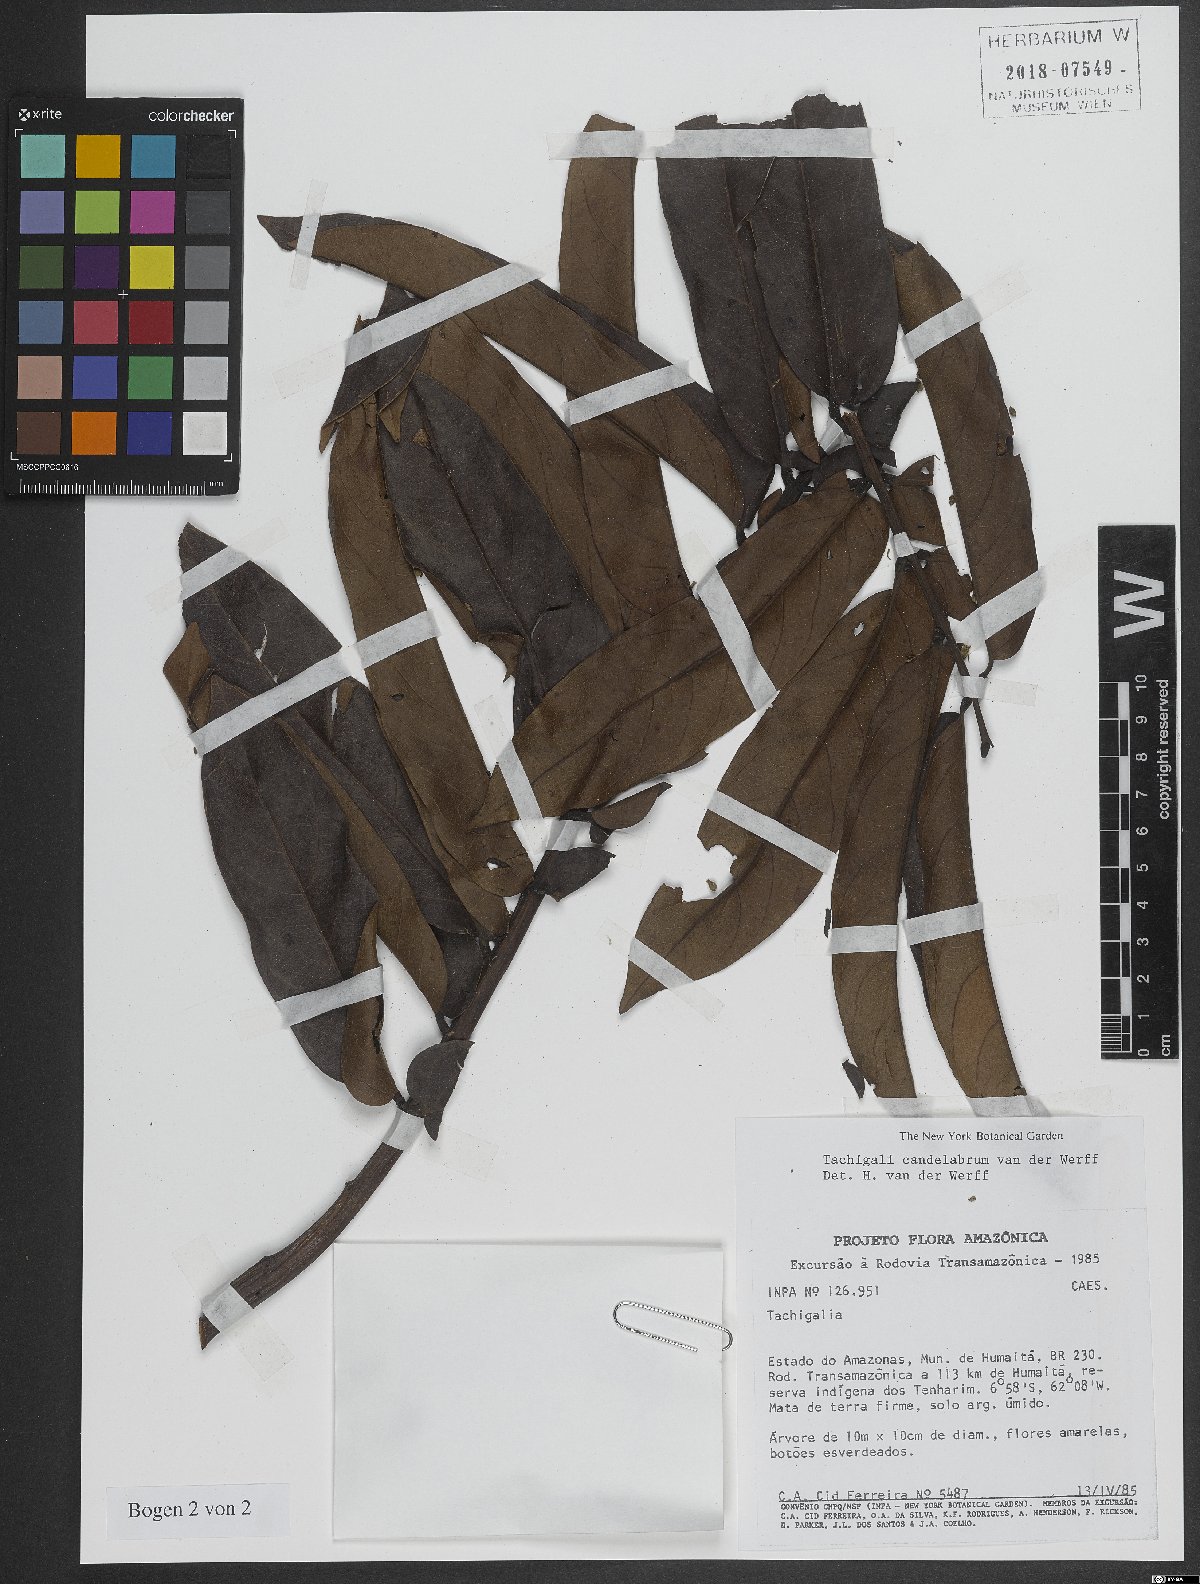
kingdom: Plantae
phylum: Tracheophyta
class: Magnoliopsida
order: Fabales
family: Fabaceae
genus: Tachigali
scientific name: Tachigali candelabrum
